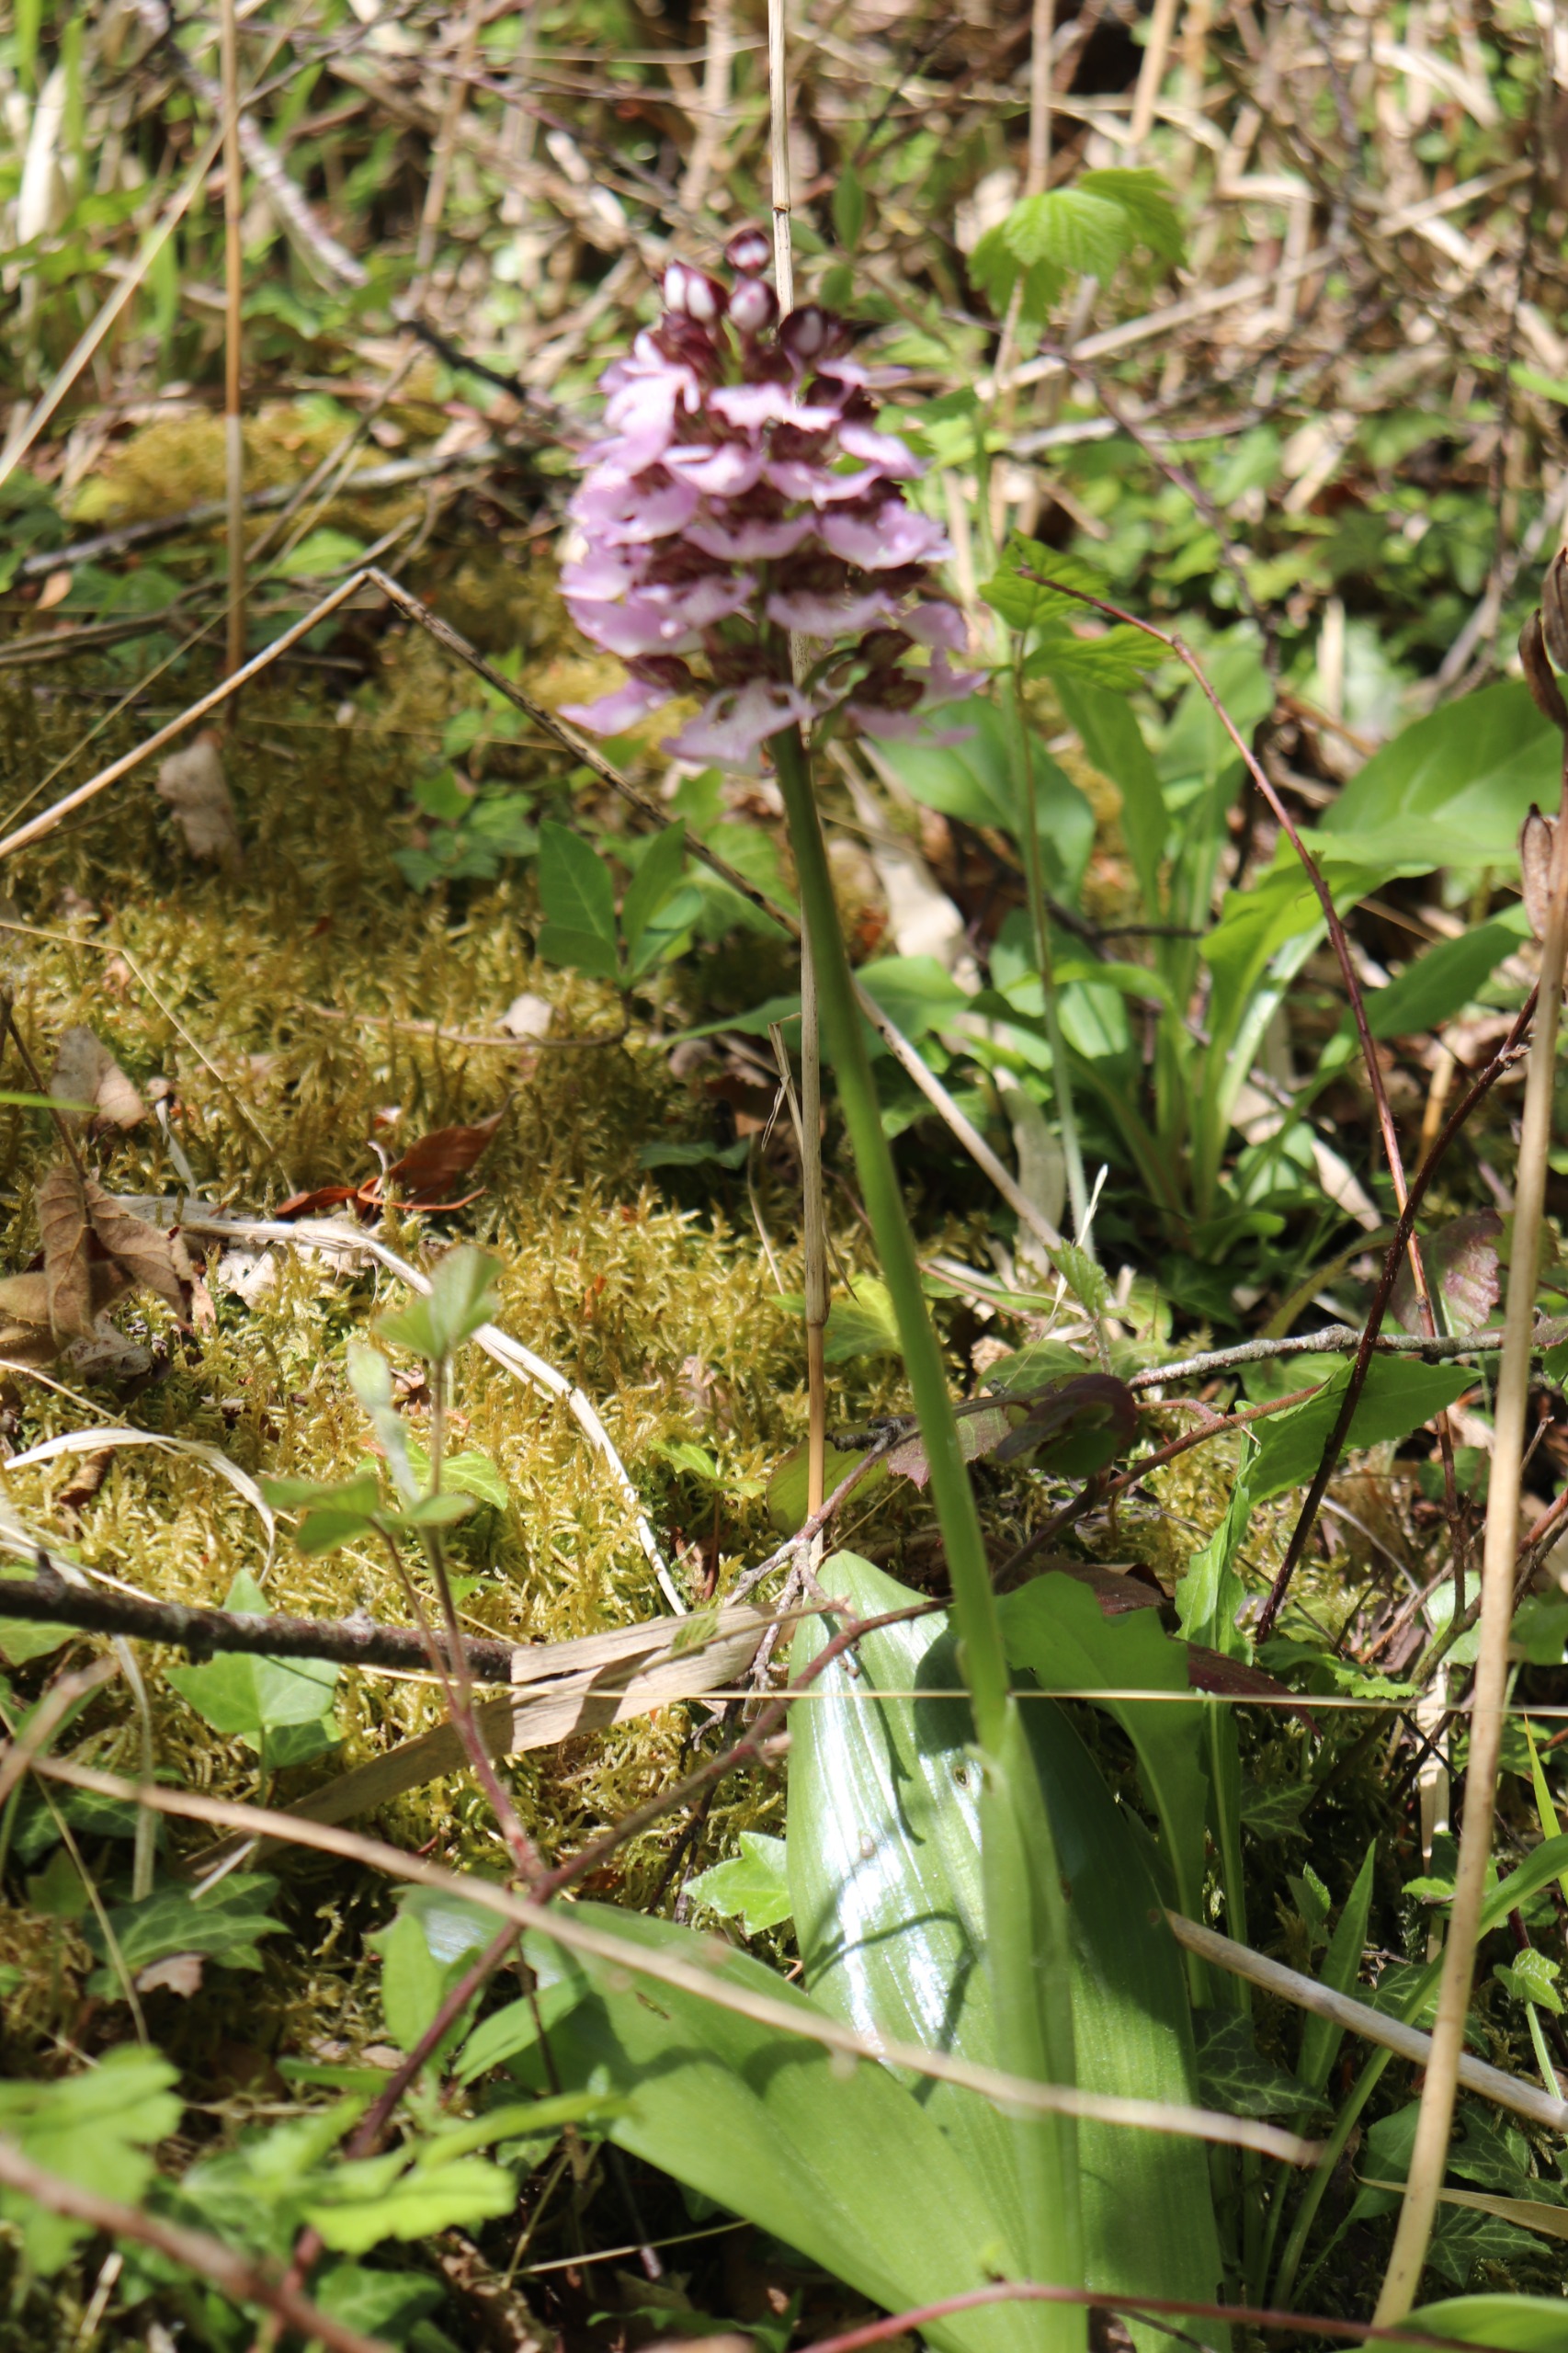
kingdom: Plantae
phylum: Tracheophyta
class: Liliopsida
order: Asparagales
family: Orchidaceae
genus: Orchis
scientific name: Orchis purpurea
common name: Stor gøgeurt
